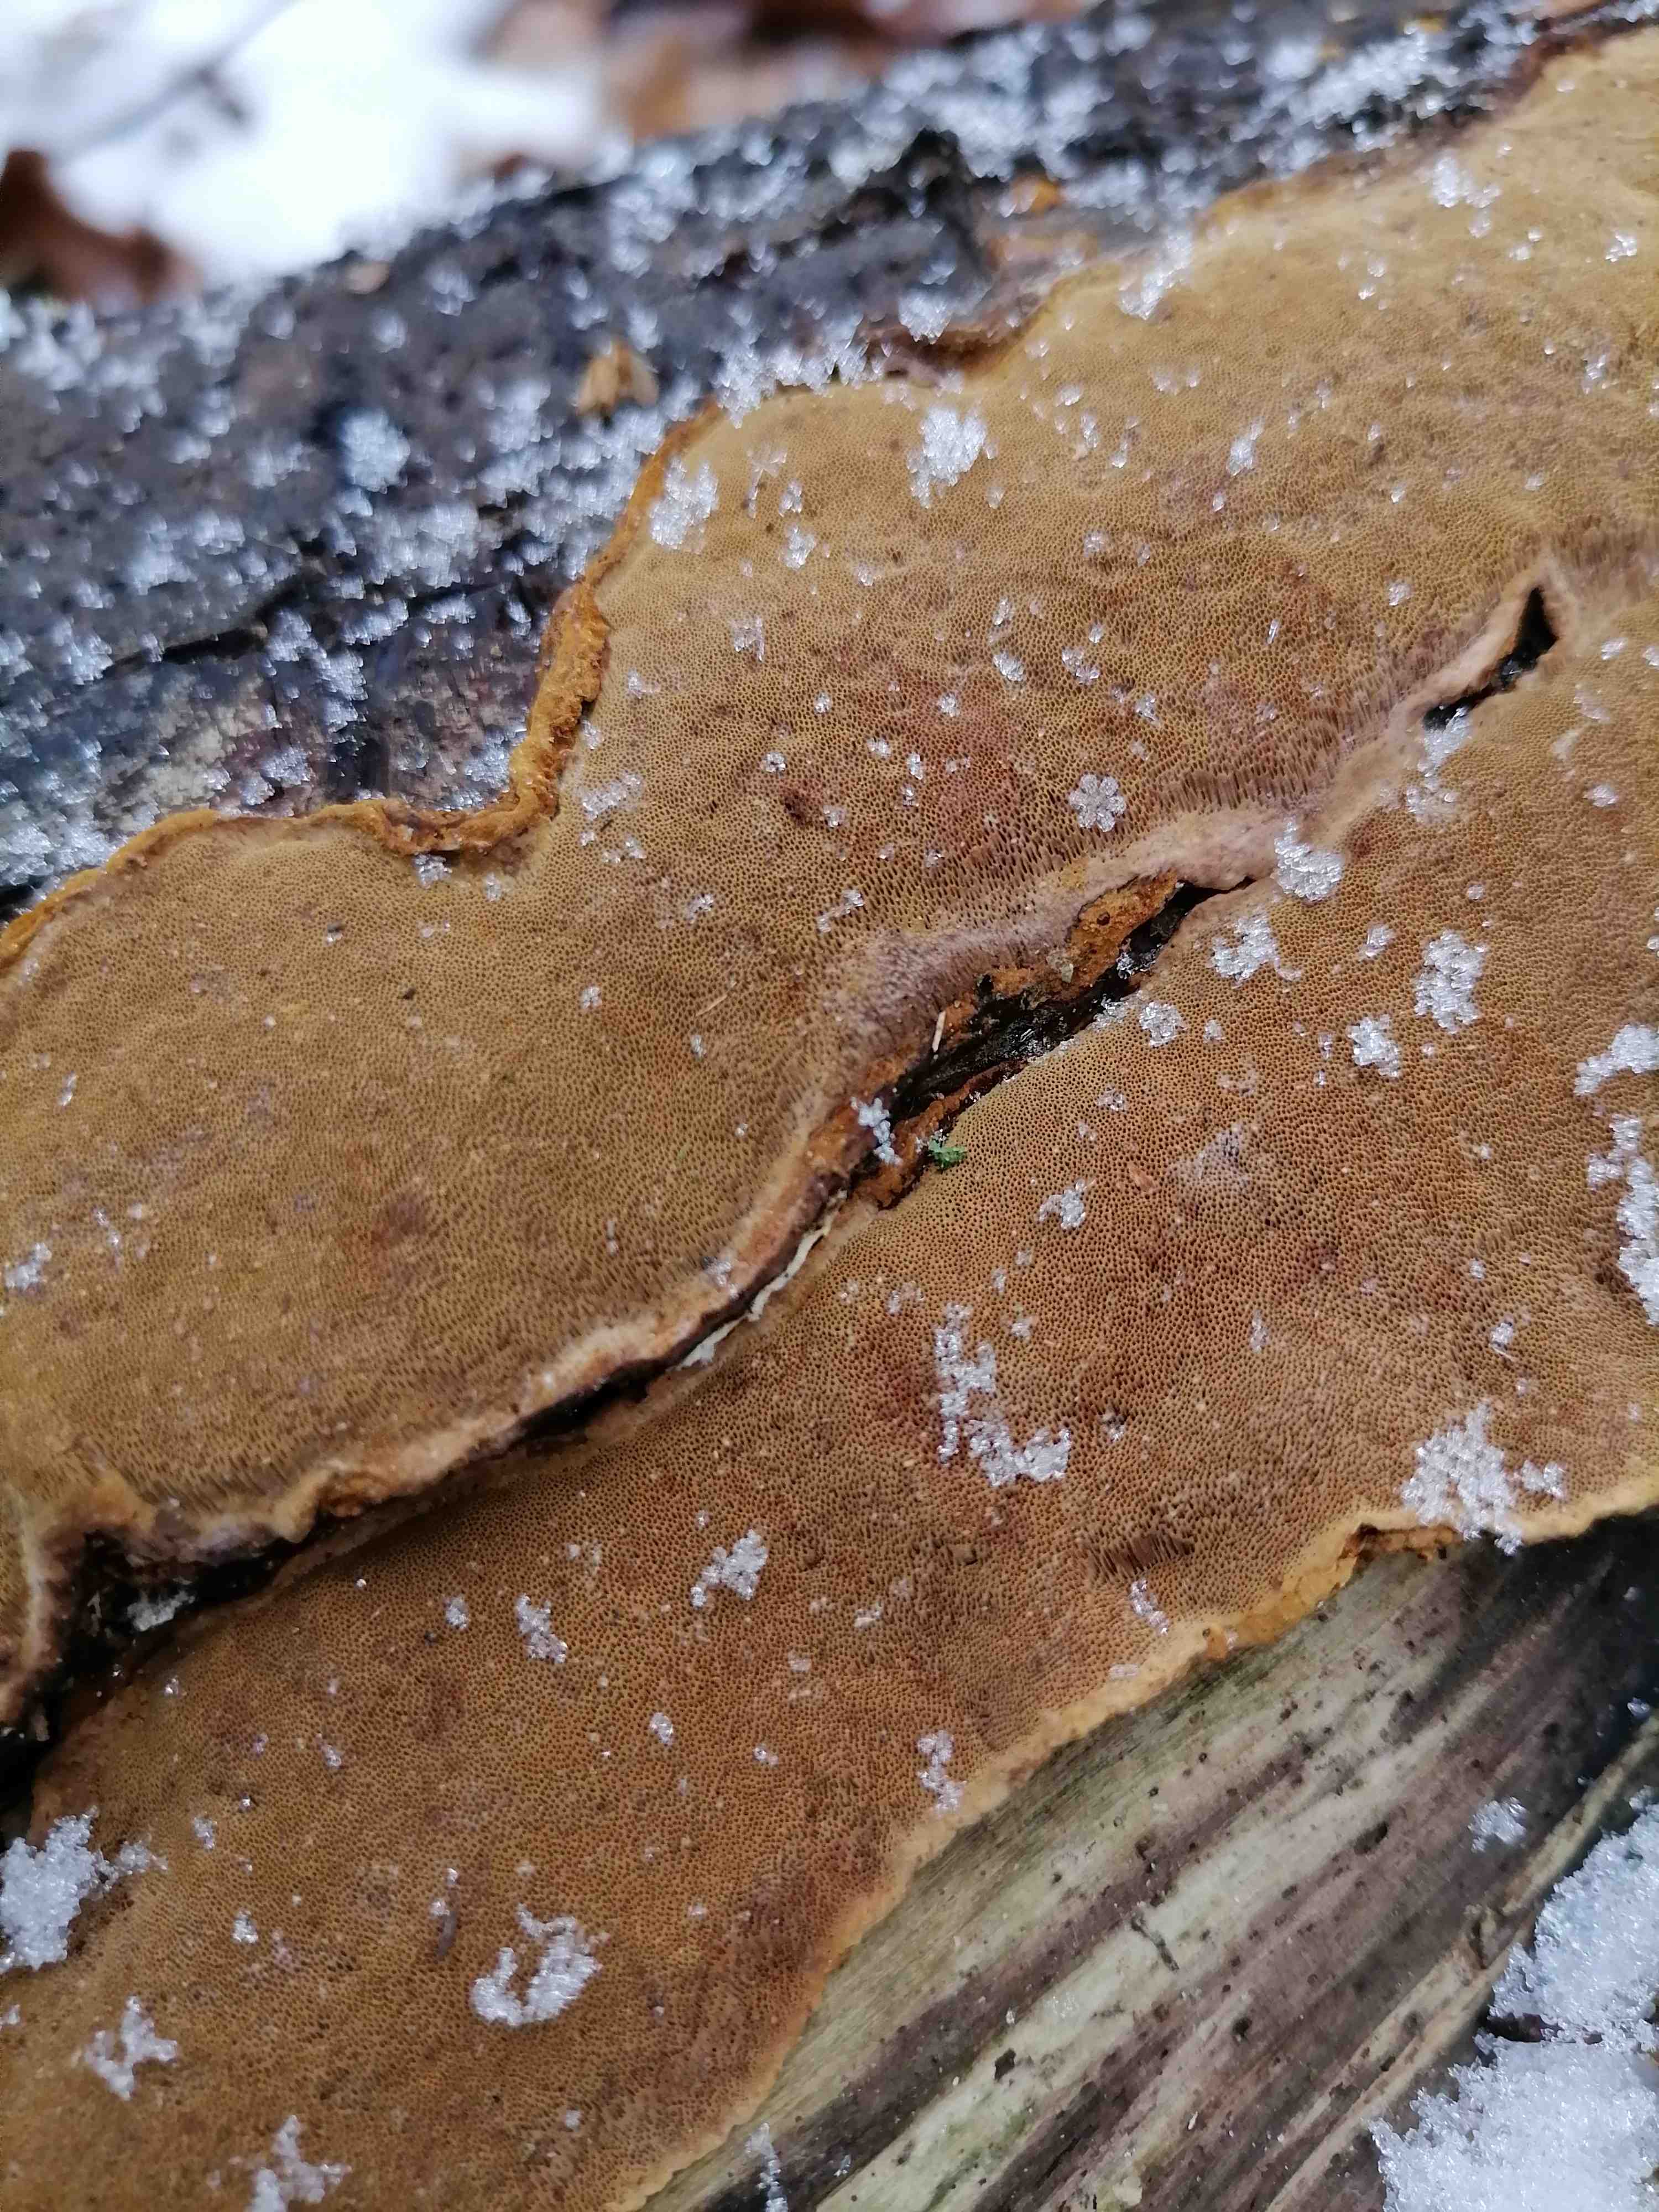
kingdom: Fungi
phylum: Basidiomycota
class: Agaricomycetes
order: Hymenochaetales
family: Hymenochaetaceae
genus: Fuscoporia
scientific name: Fuscoporia ferrea
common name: skorpe-ildporesvamp
